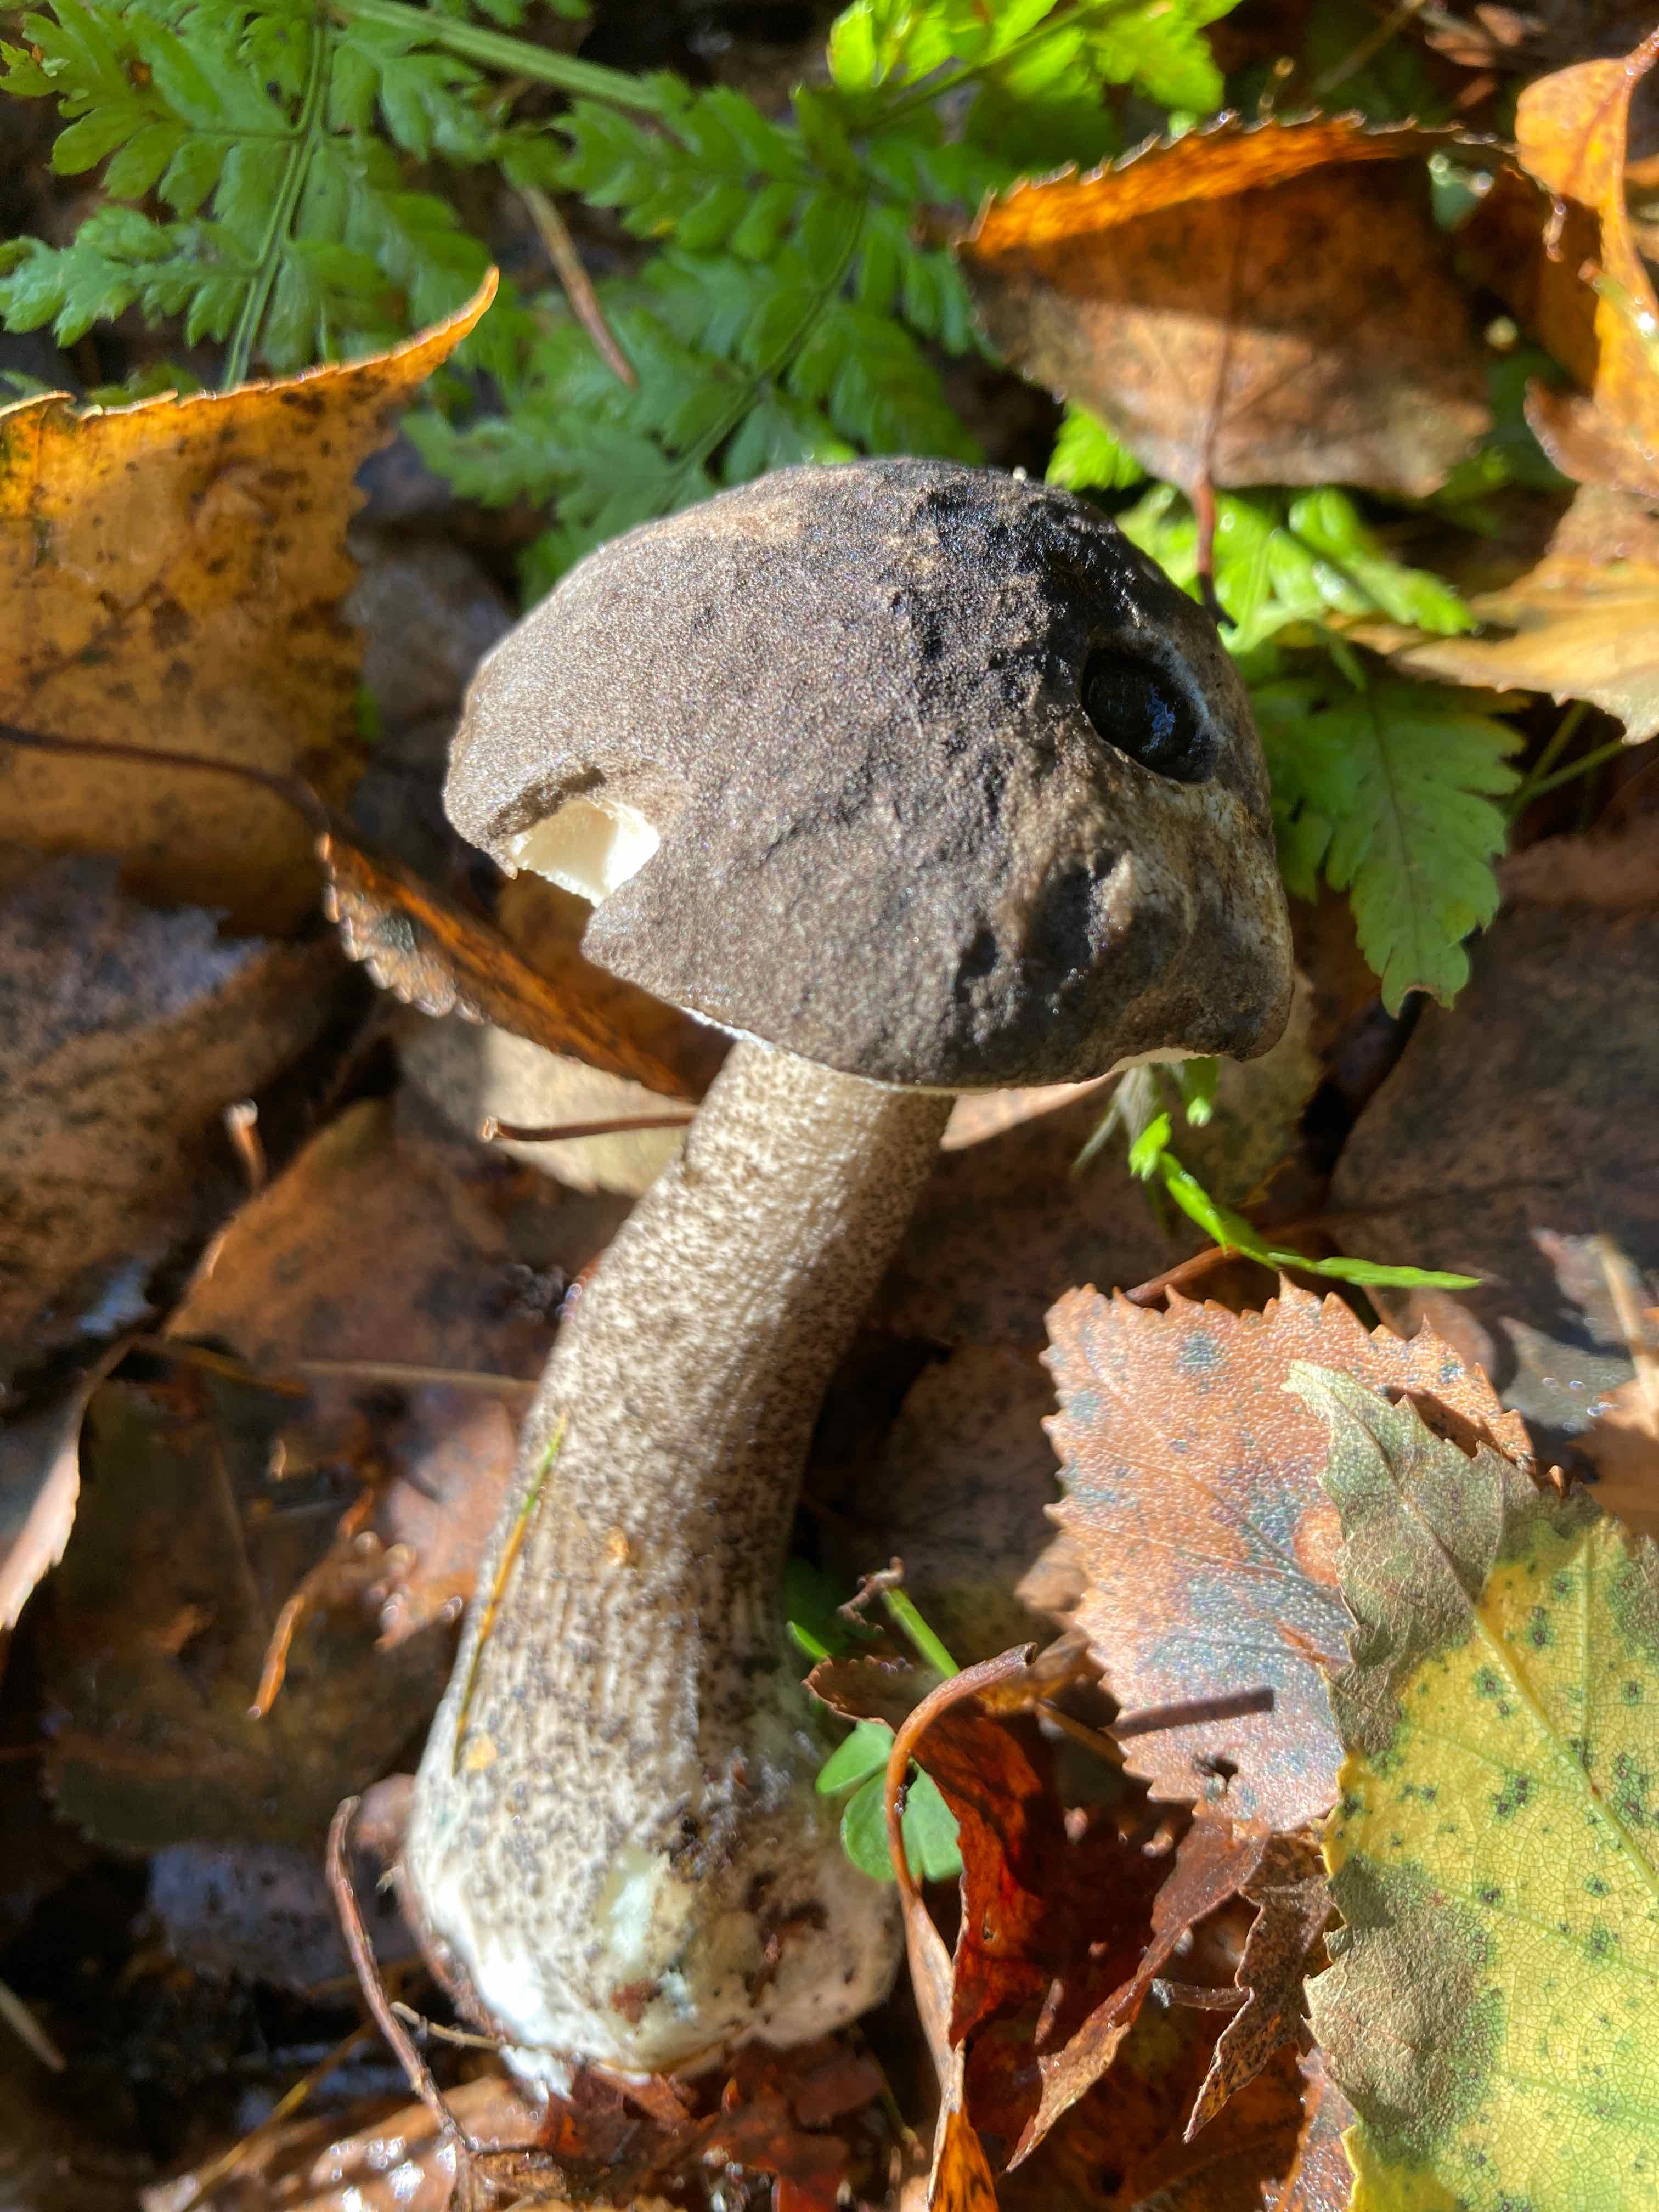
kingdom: Fungi
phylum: Basidiomycota
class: Agaricomycetes
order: Boletales
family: Boletaceae
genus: Leccinum
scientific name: Leccinum variicolor
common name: flammet skælrørhat
